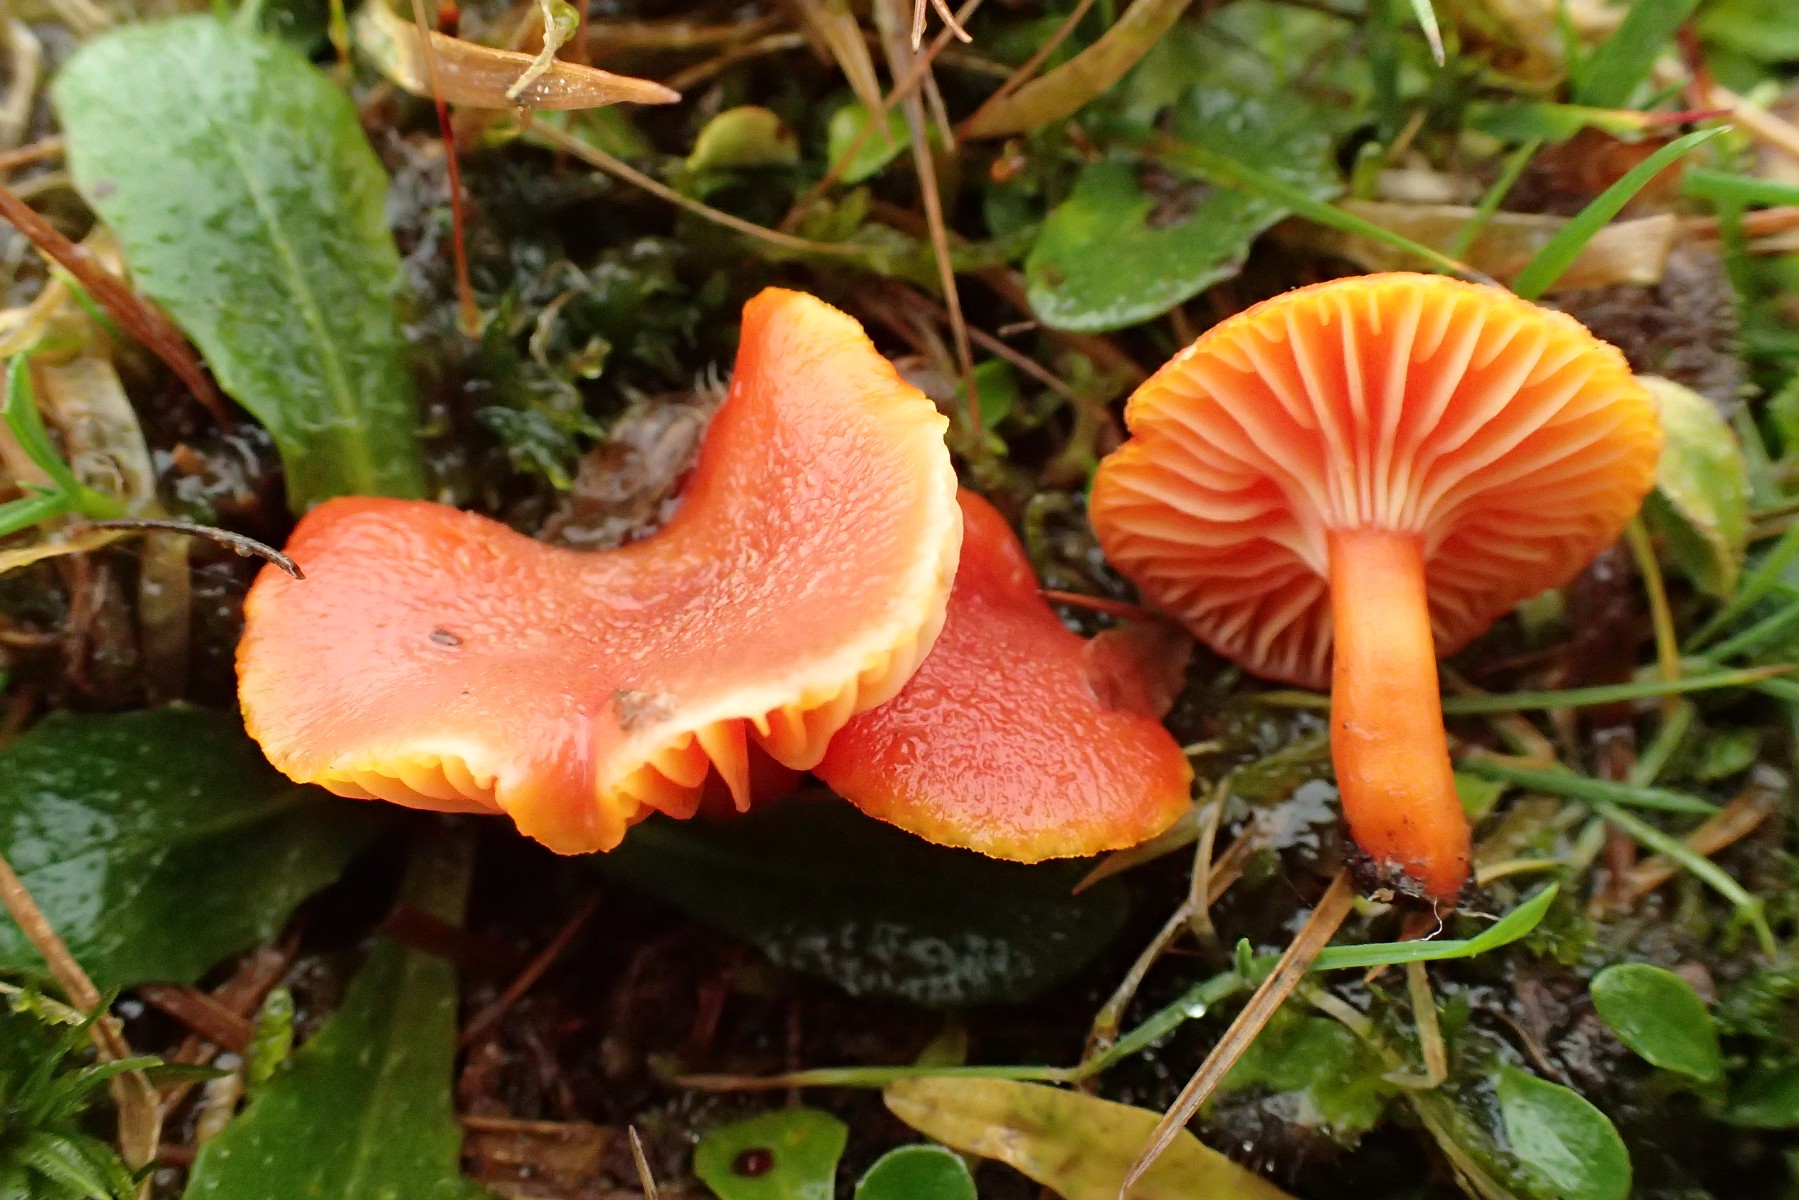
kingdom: Fungi
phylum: Basidiomycota
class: Agaricomycetes
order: Agaricales
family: Hygrophoraceae
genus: Hygrocybe
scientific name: Hygrocybe miniata
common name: mønje-vokshat
